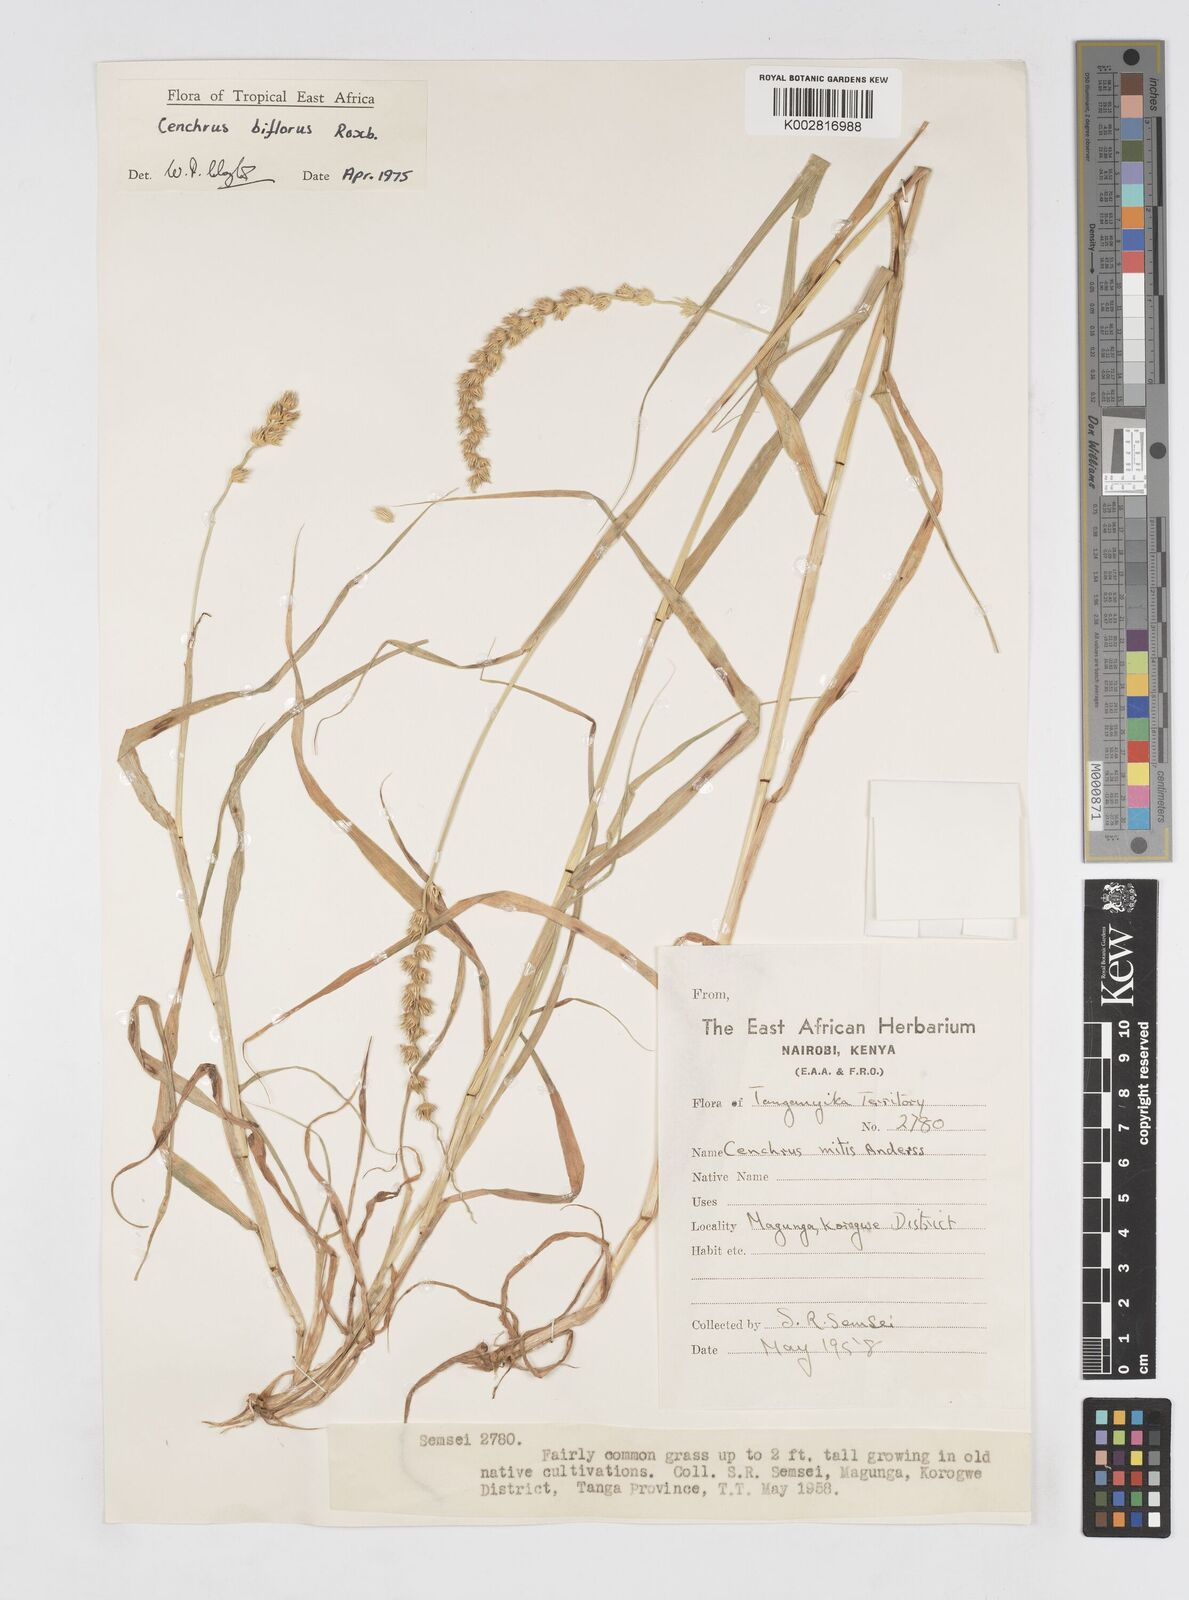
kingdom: Plantae
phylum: Tracheophyta
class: Liliopsida
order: Poales
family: Poaceae
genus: Cenchrus
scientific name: Cenchrus biflorus
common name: Indian sandbur
